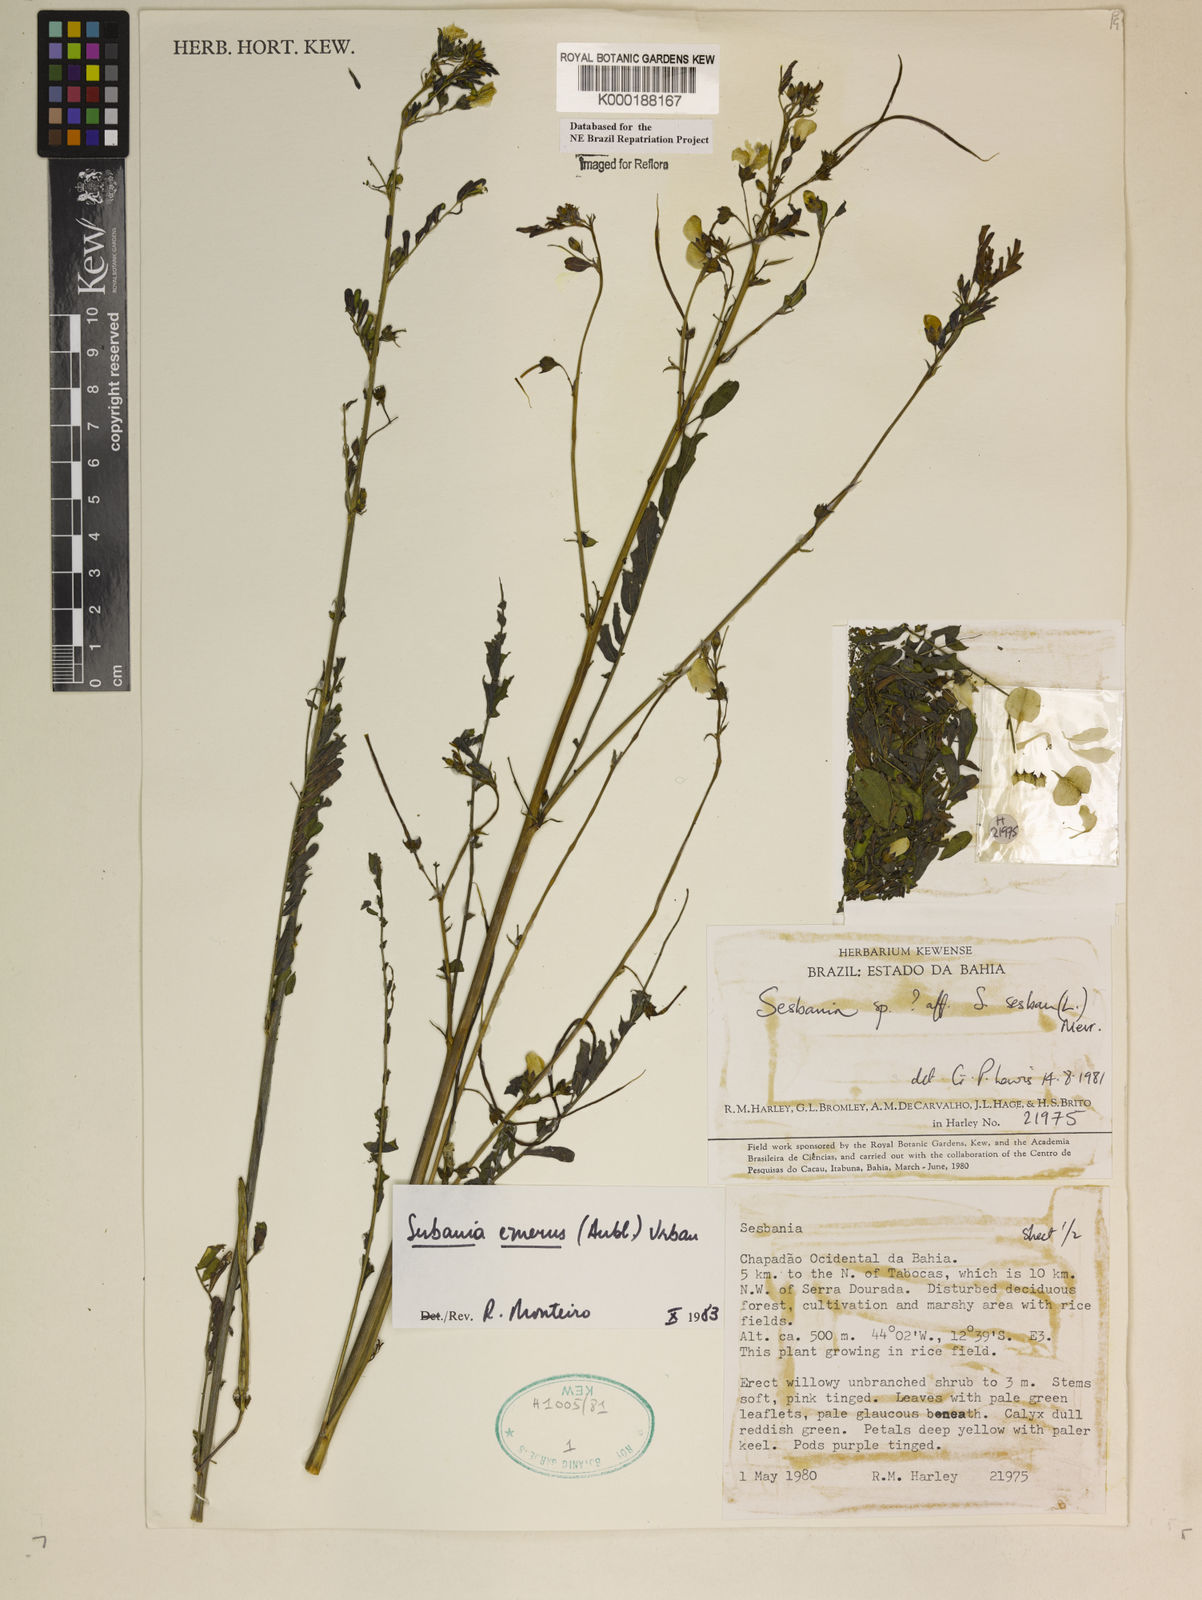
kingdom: Plantae
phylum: Tracheophyta
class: Magnoliopsida
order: Fabales
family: Fabaceae
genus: Sesbania
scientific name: Sesbania herbacea
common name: Bigpod sesbania
